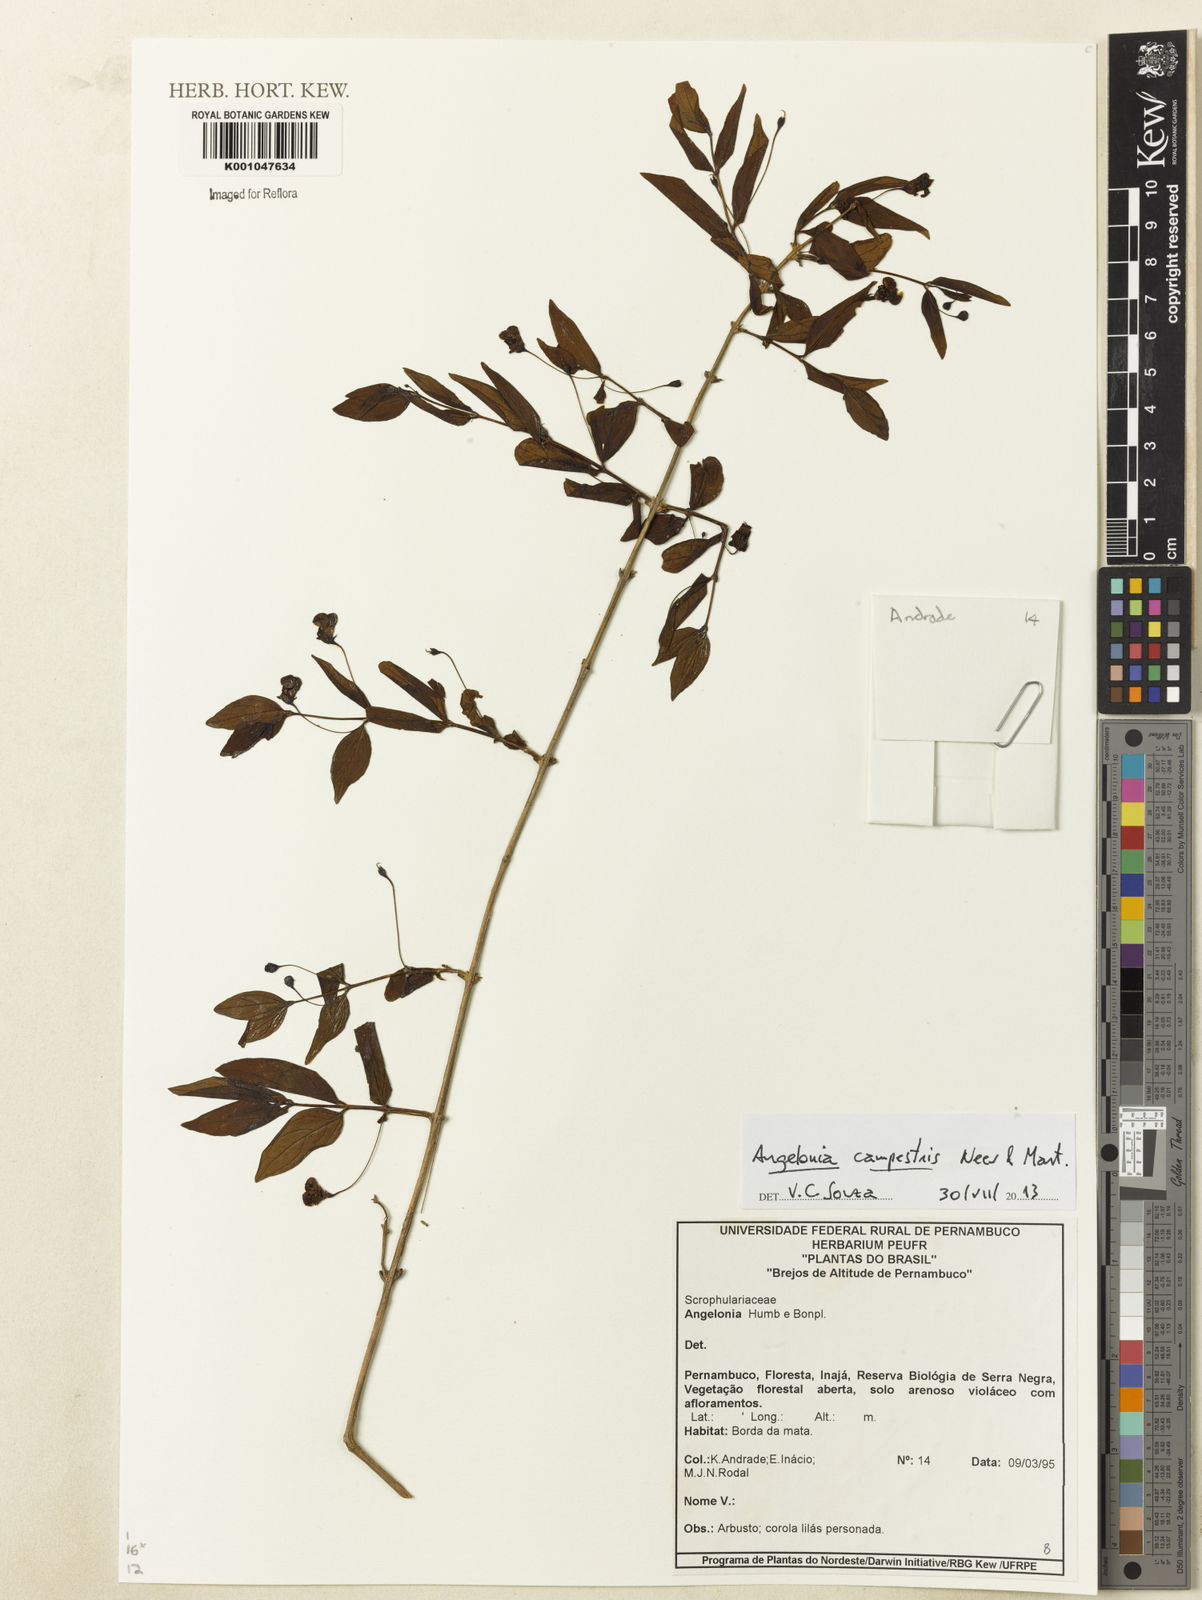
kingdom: Plantae
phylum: Tracheophyta
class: Magnoliopsida
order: Lamiales
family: Plantaginaceae
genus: Angelonia
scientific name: Angelonia campestris
